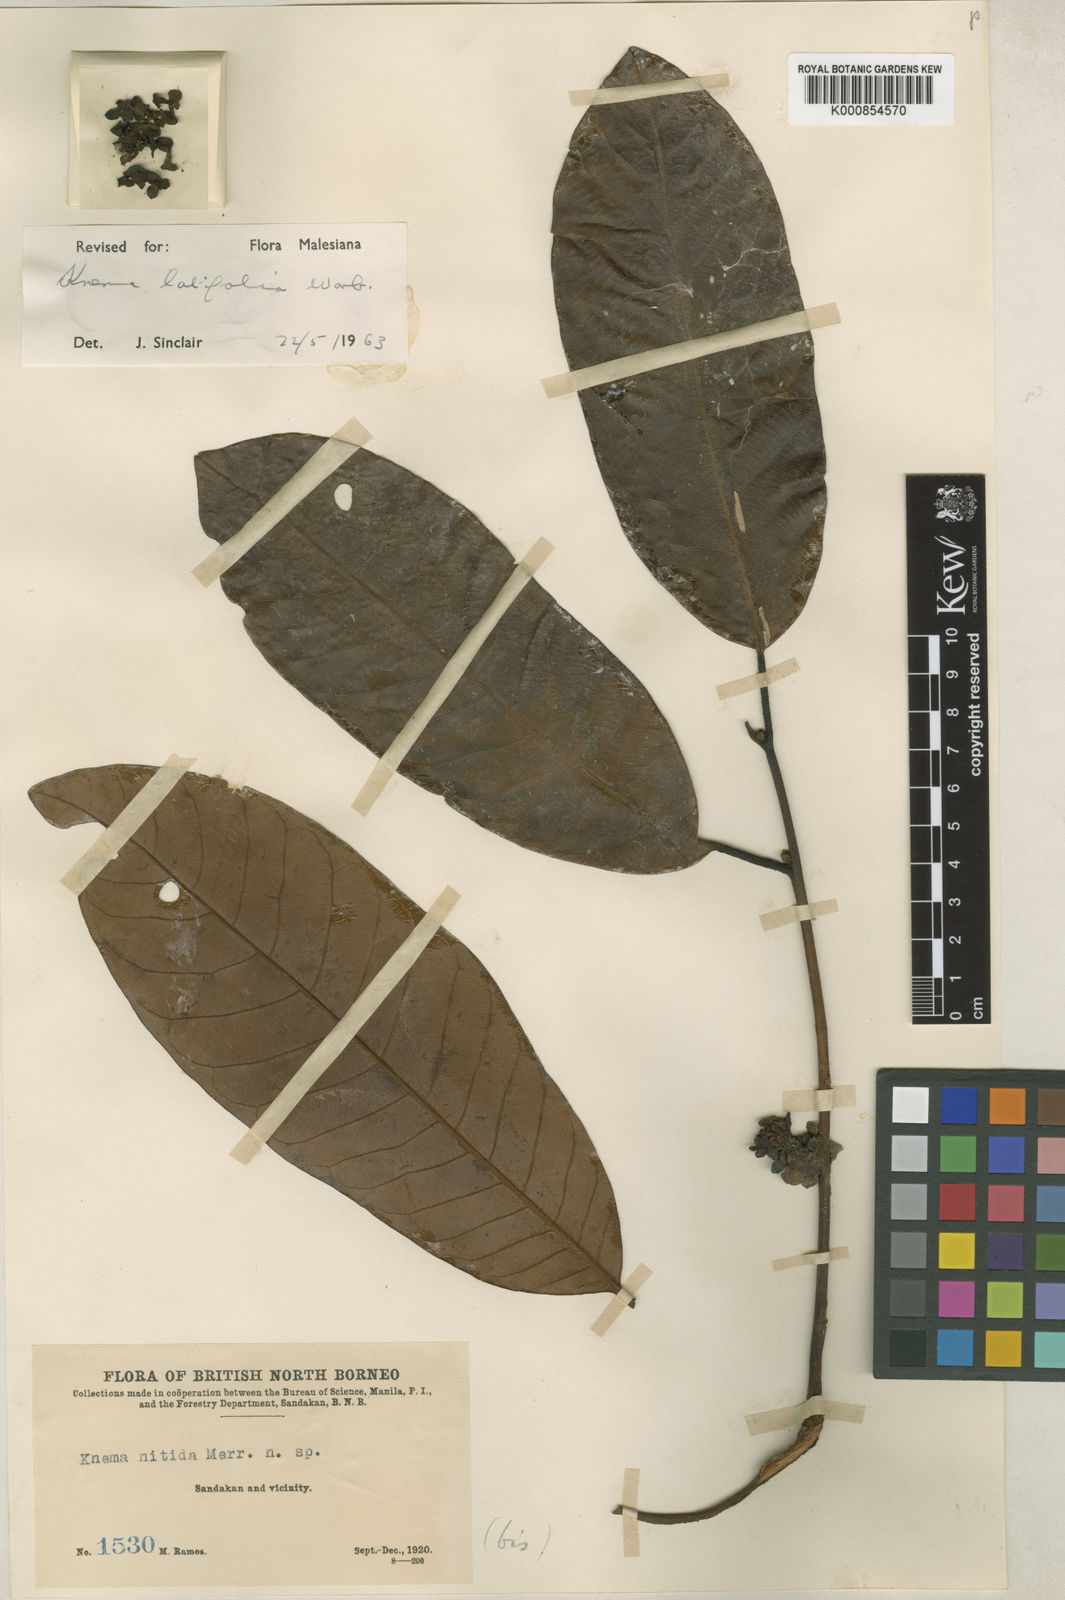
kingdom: Plantae
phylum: Tracheophyta
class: Magnoliopsida
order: Magnoliales
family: Myristicaceae
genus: Knema
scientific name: Knema latifolia
